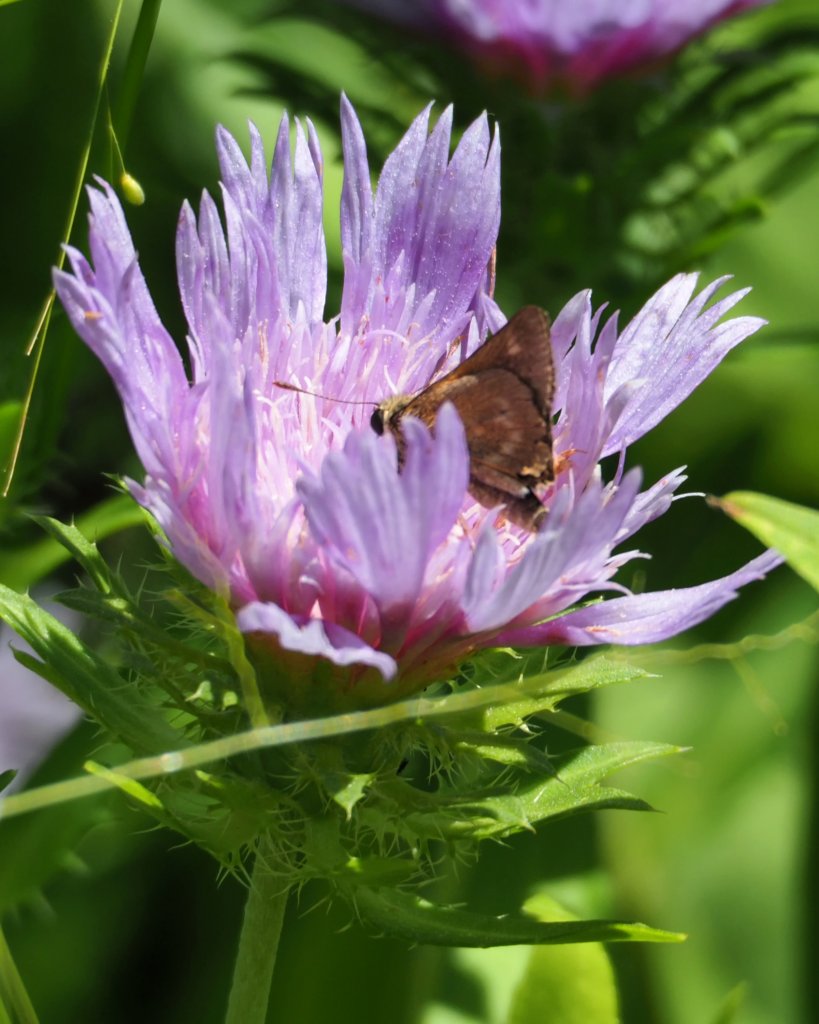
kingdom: Animalia
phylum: Arthropoda
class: Insecta
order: Lepidoptera
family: Hesperiidae
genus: Wallengrenia
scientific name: Wallengrenia otho
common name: Southern Broken-Dash
